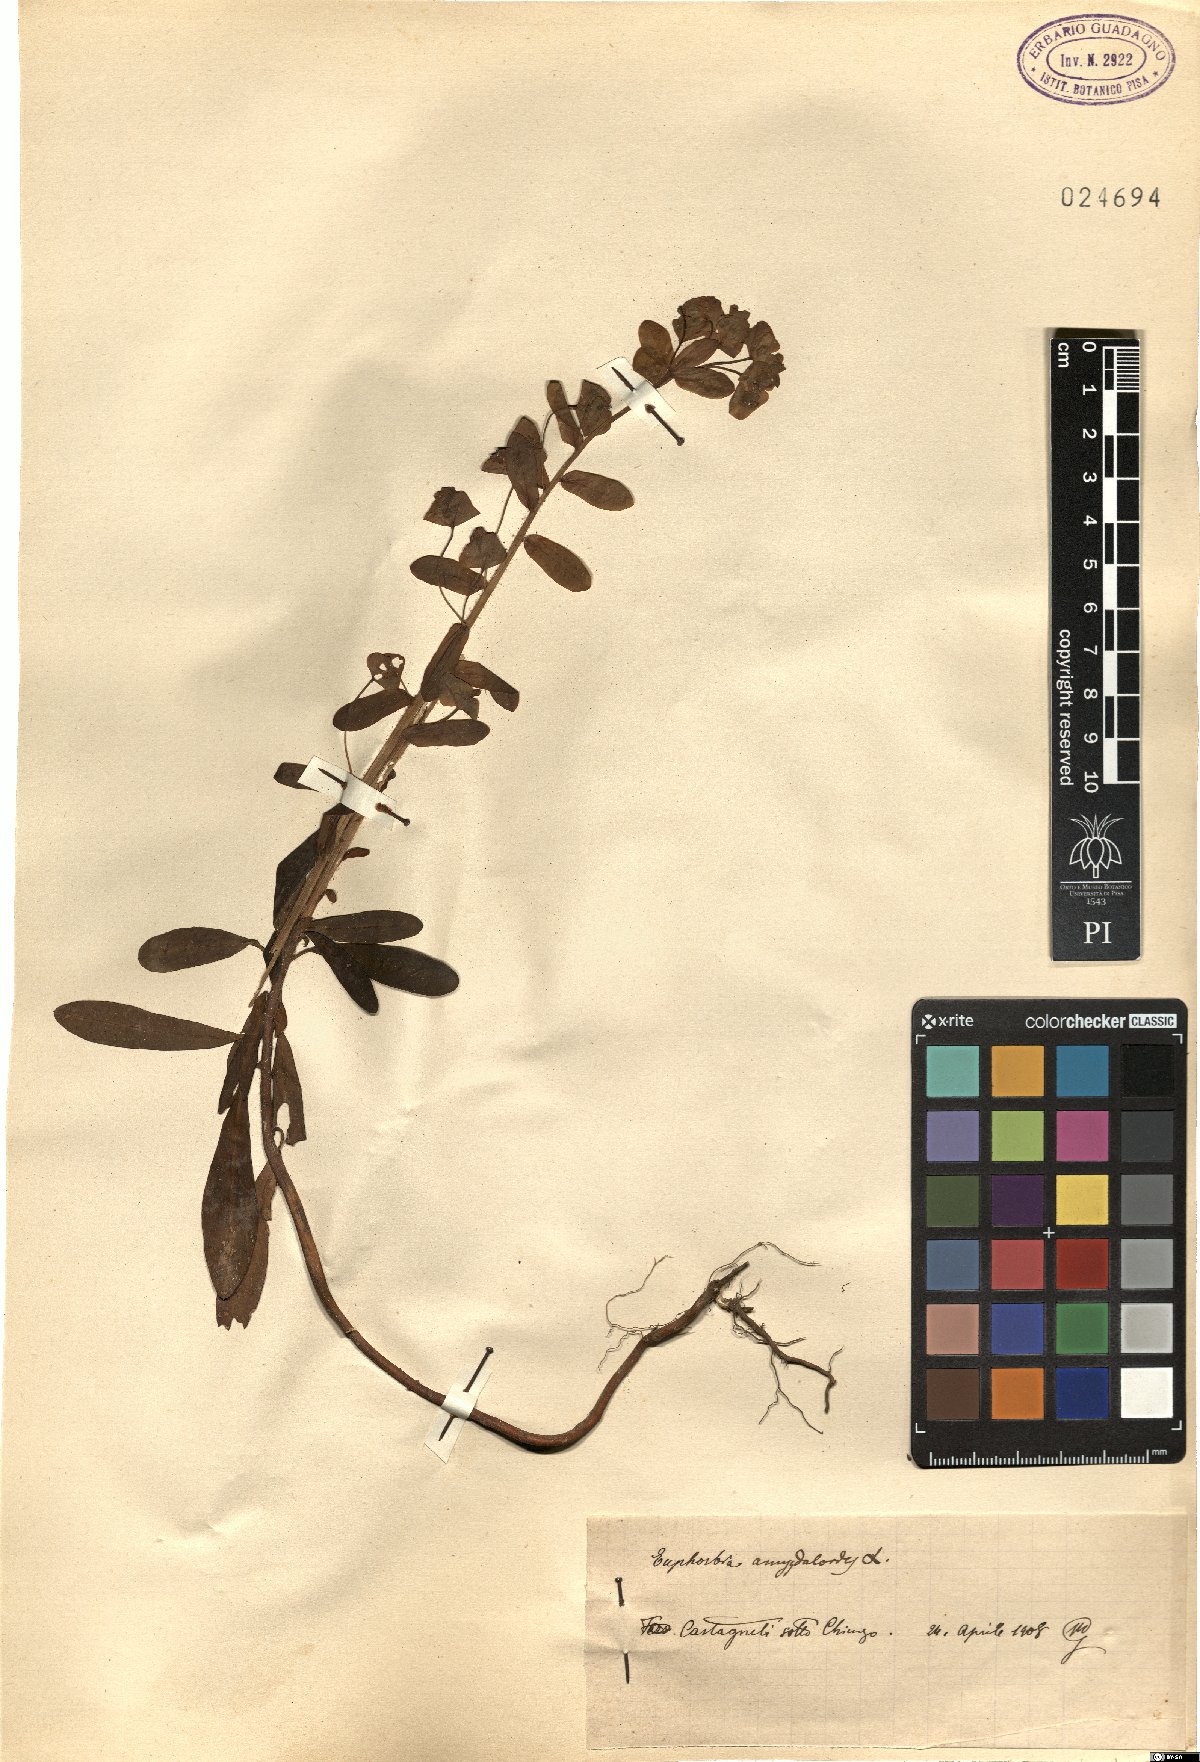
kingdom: Plantae
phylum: Tracheophyta
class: Magnoliopsida
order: Malpighiales
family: Euphorbiaceae
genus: Euphorbia
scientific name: Euphorbia amygdaloides
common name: Wood spurge
